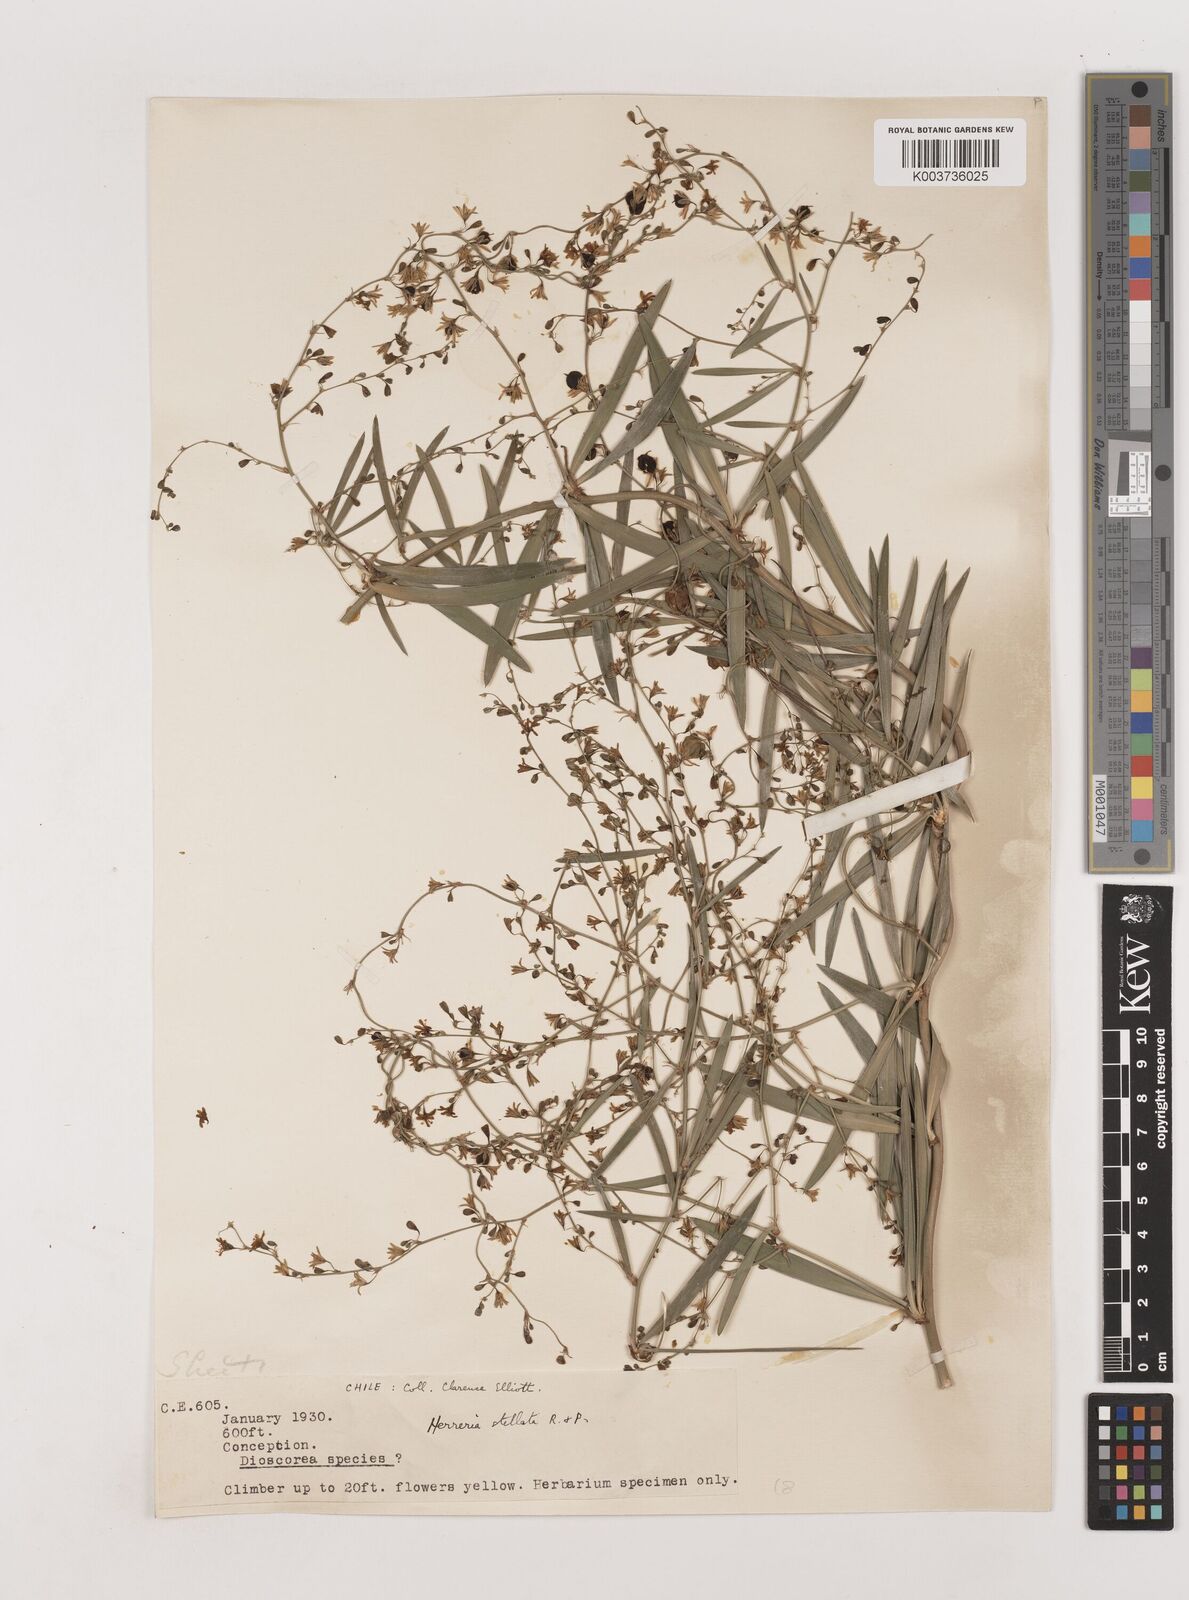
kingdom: Plantae
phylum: Tracheophyta
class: Liliopsida
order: Asparagales
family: Asparagaceae
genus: Herreria
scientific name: Herreria stellata
